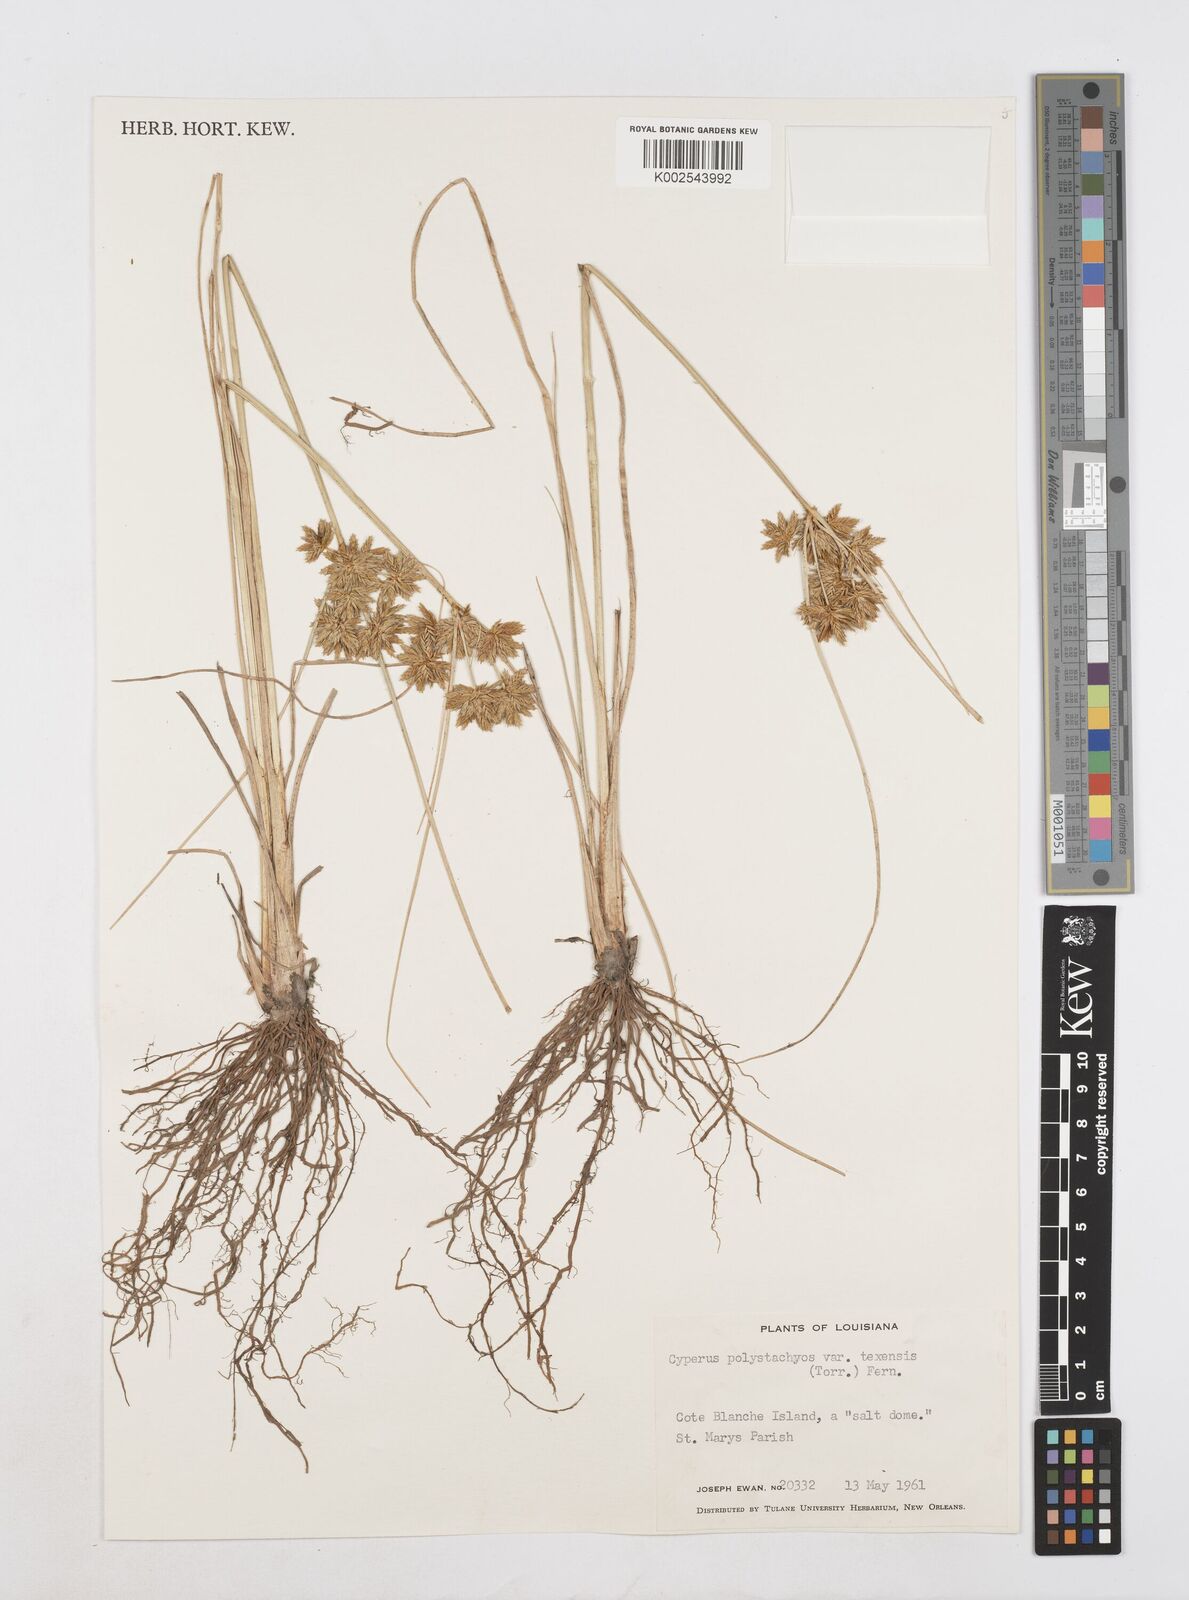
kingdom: Plantae
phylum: Tracheophyta
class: Liliopsida
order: Poales
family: Cyperaceae
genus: Cyperus
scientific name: Cyperus polystachyos
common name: Bunchy flat sedge
